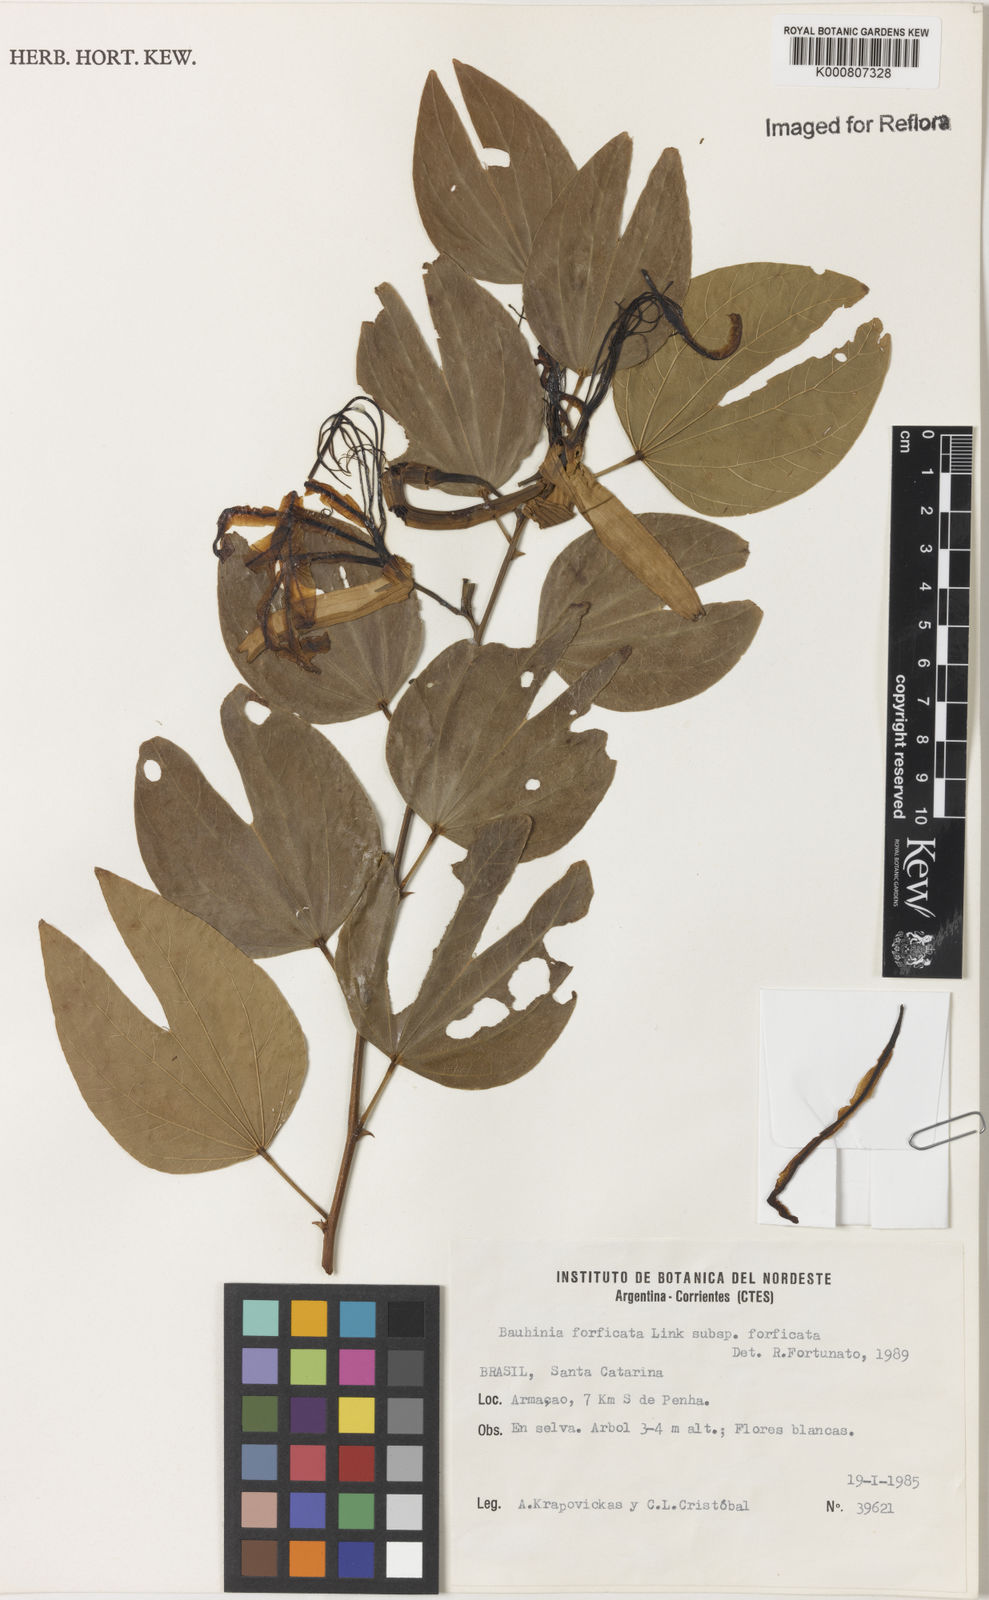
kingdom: Plantae
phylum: Tracheophyta
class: Magnoliopsida
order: Fabales
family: Fabaceae
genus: Bauhinia
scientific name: Bauhinia forficata
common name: Orchid tree
